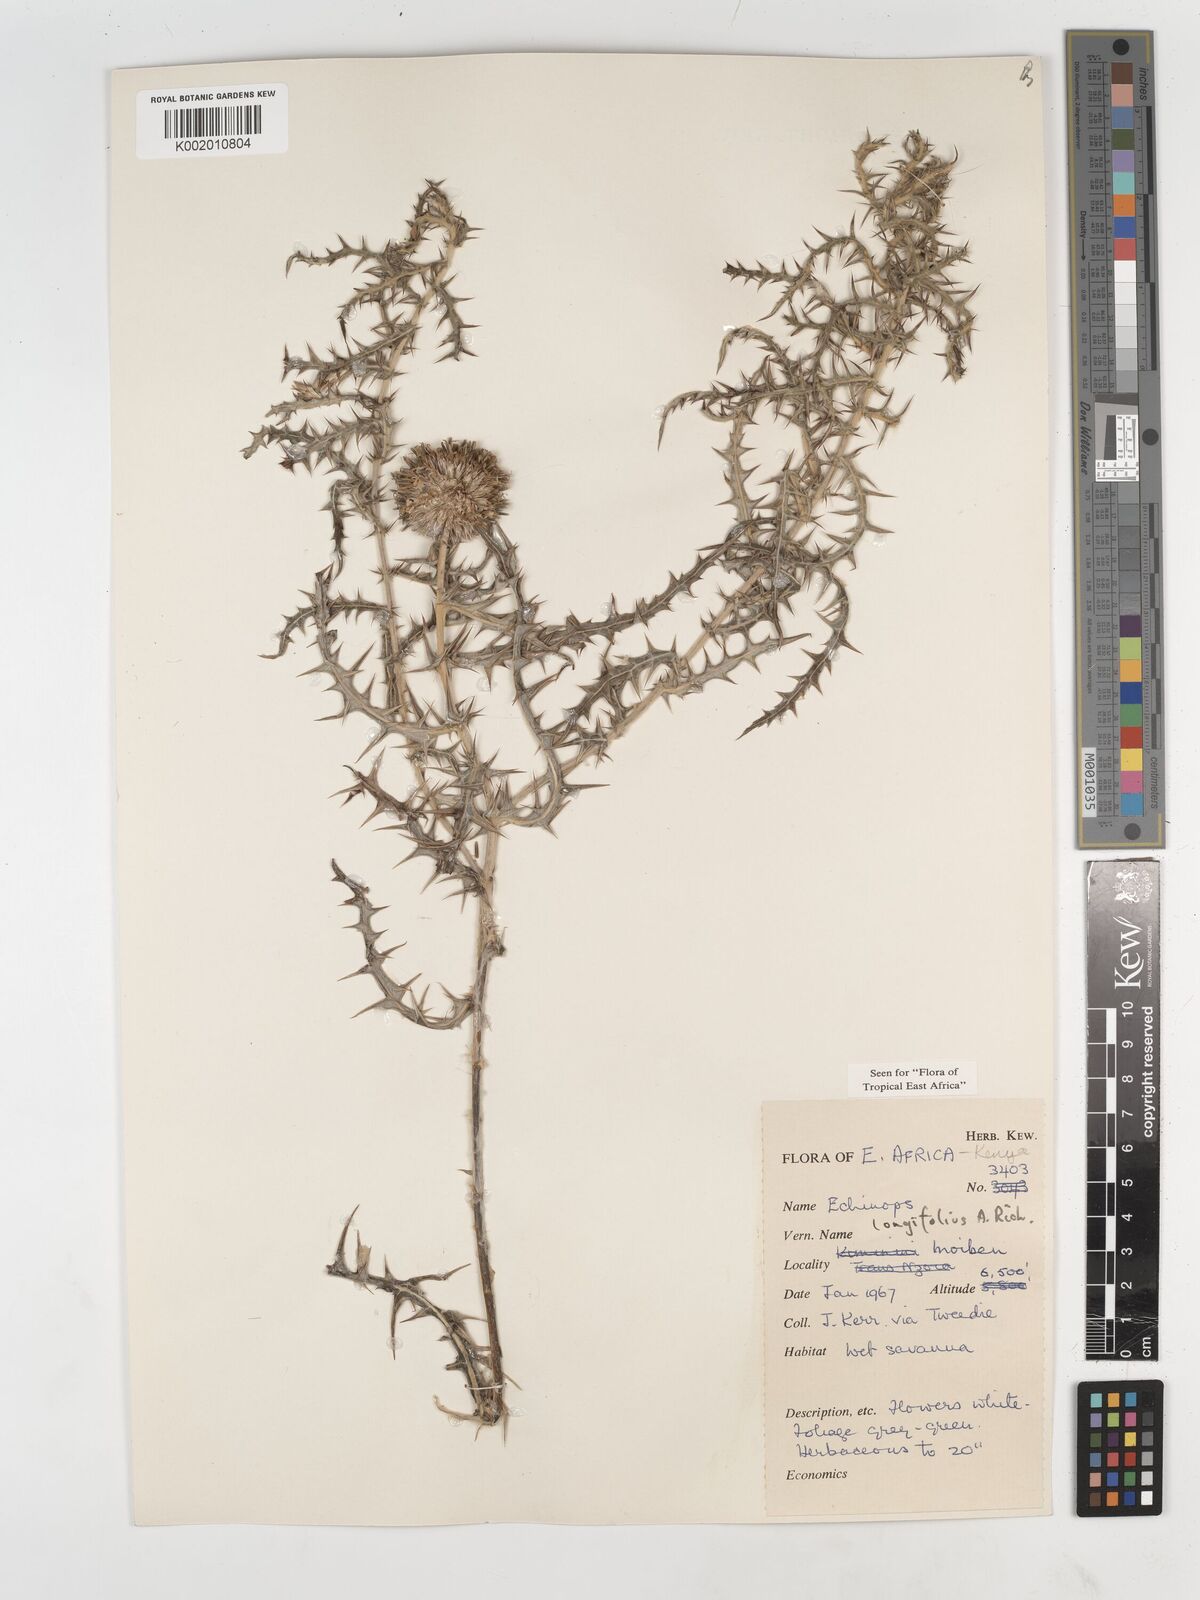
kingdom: Plantae
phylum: Tracheophyta
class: Magnoliopsida
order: Asterales
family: Asteraceae
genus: Echinops
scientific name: Echinops longifolius
